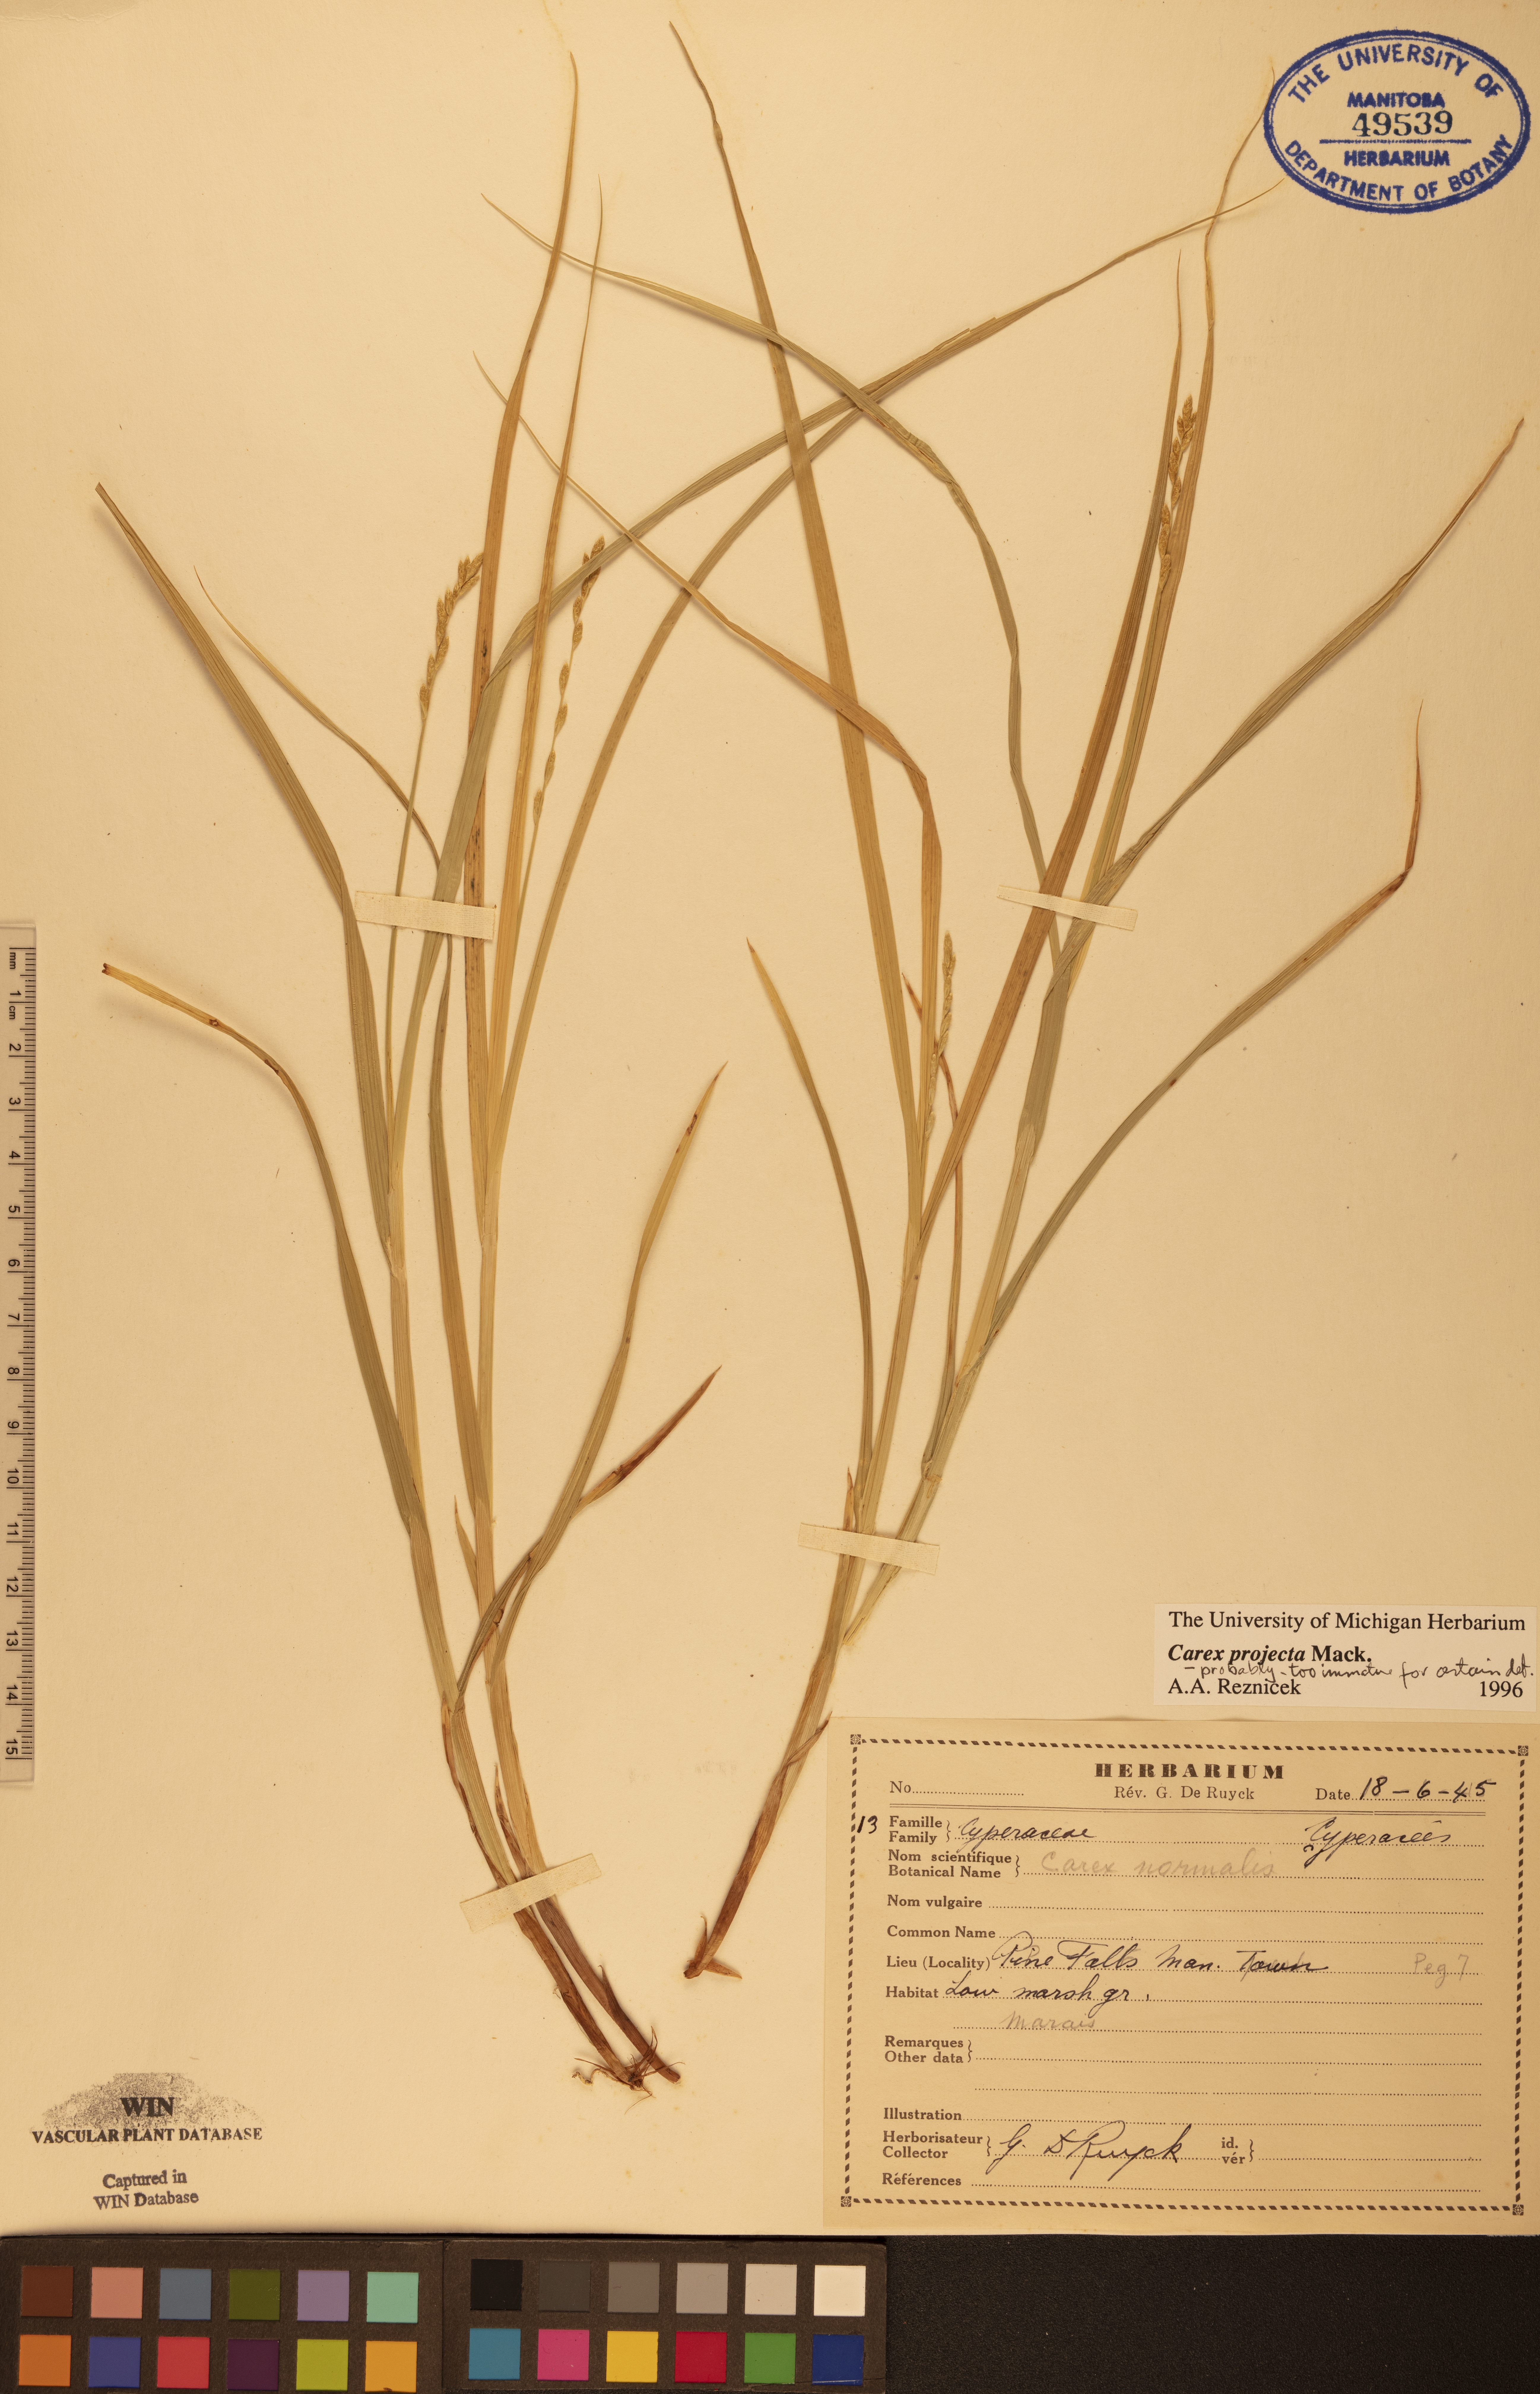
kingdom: Plantae
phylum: Tracheophyta
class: Liliopsida
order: Poales
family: Cyperaceae
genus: Carex
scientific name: Carex projecta
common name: Loose-headed oval sedge
